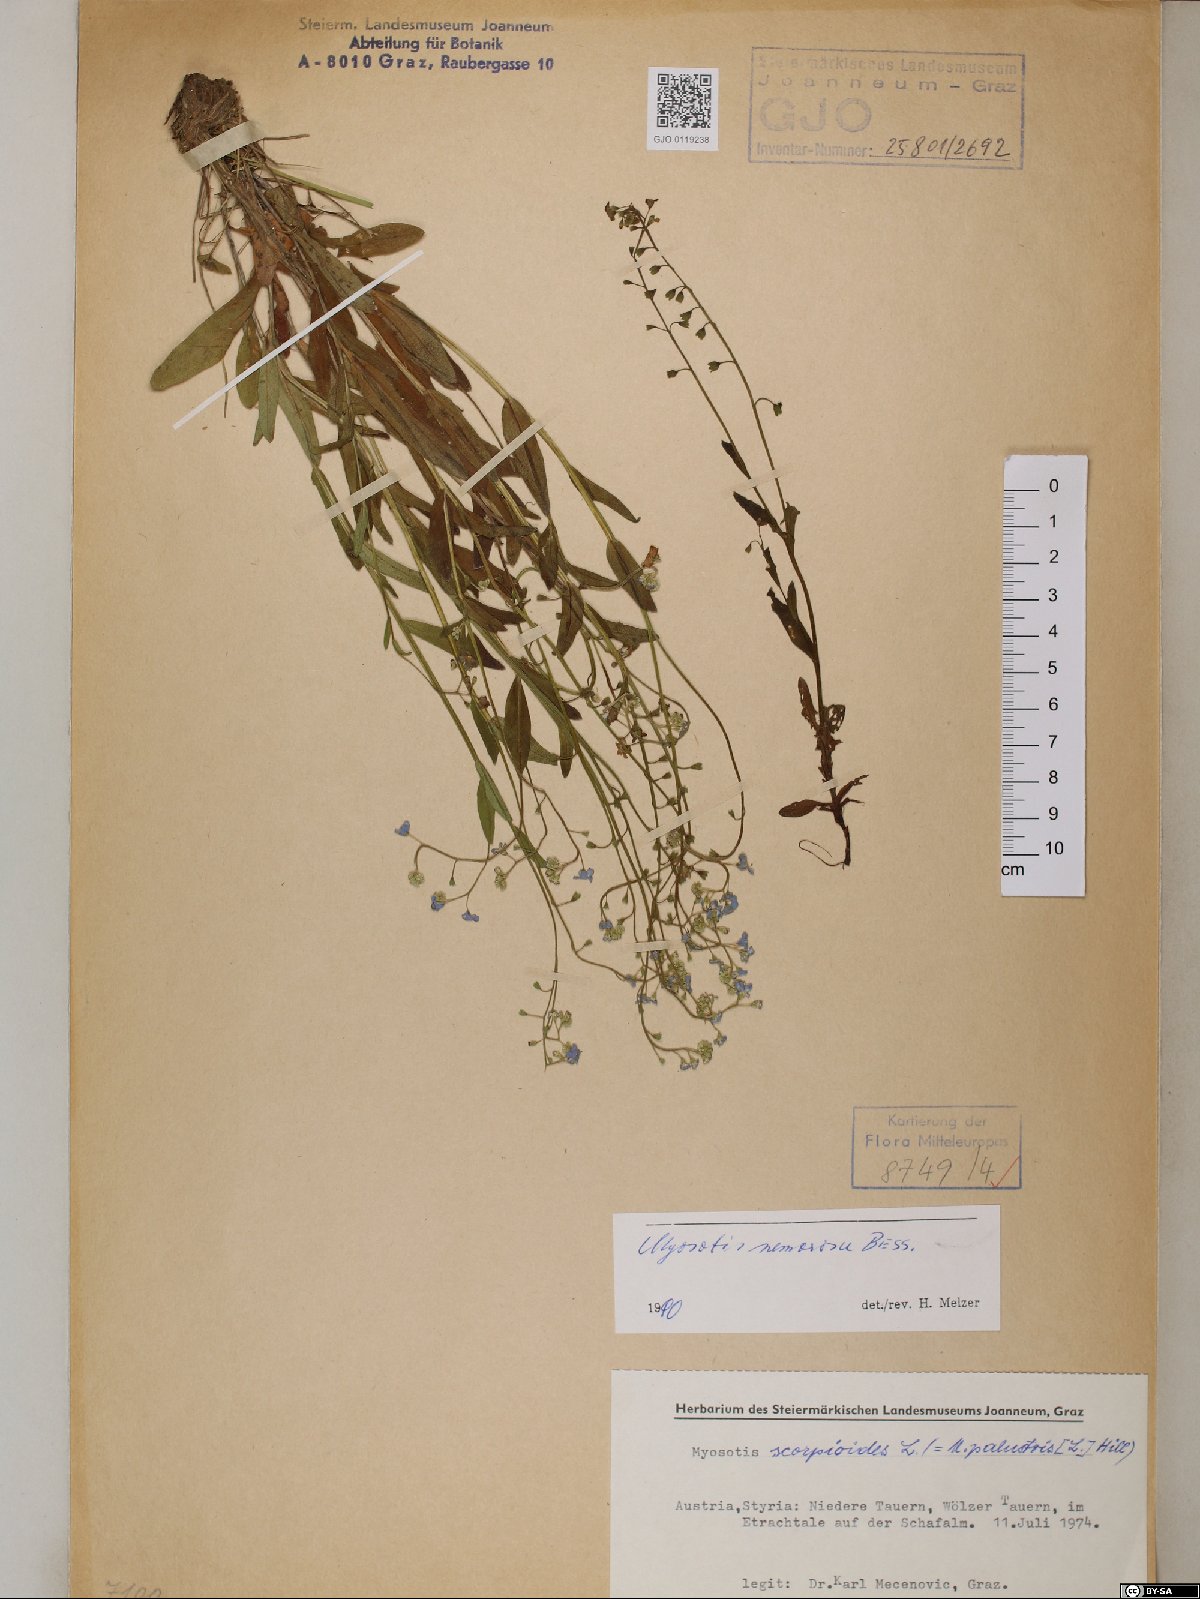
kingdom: Plantae
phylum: Tracheophyta
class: Magnoliopsida
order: Boraginales
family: Boraginaceae
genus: Myosotis
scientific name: Myosotis nemorosa
